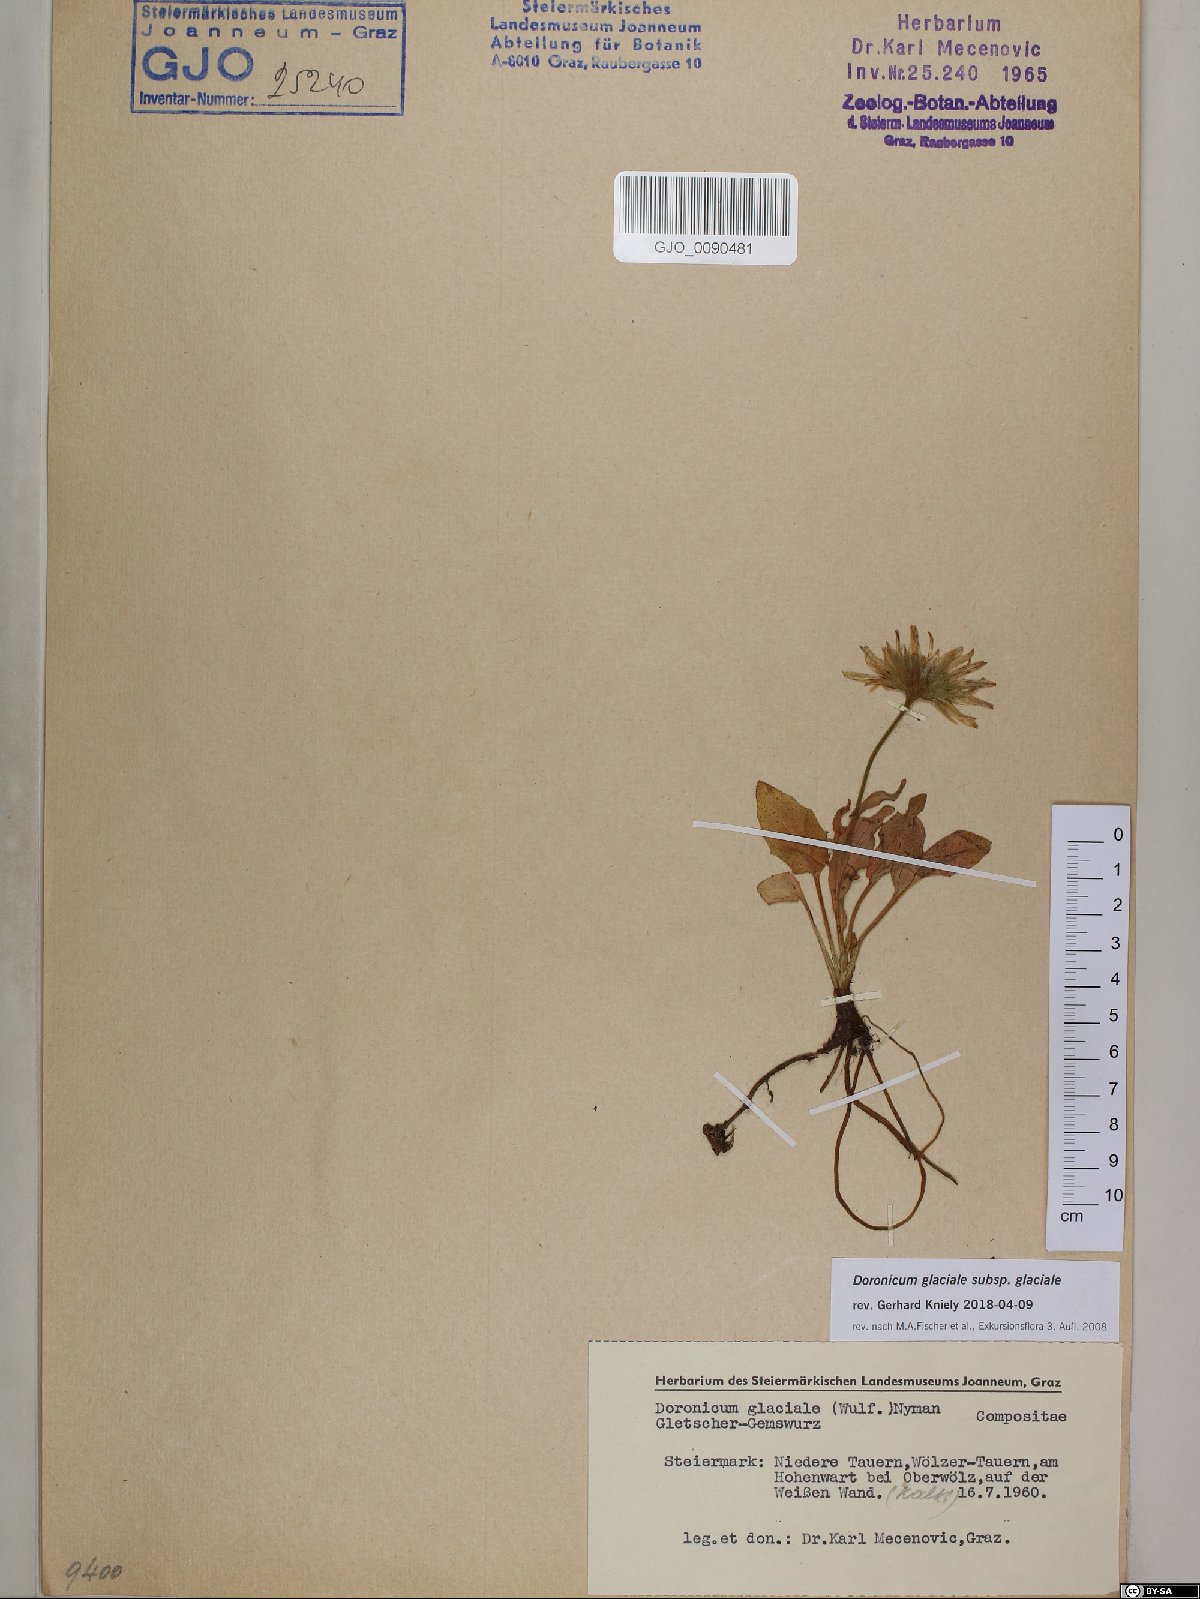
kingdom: Plantae
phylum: Tracheophyta
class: Magnoliopsida
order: Asterales
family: Asteraceae
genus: Doronicum
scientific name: Doronicum glaciale
